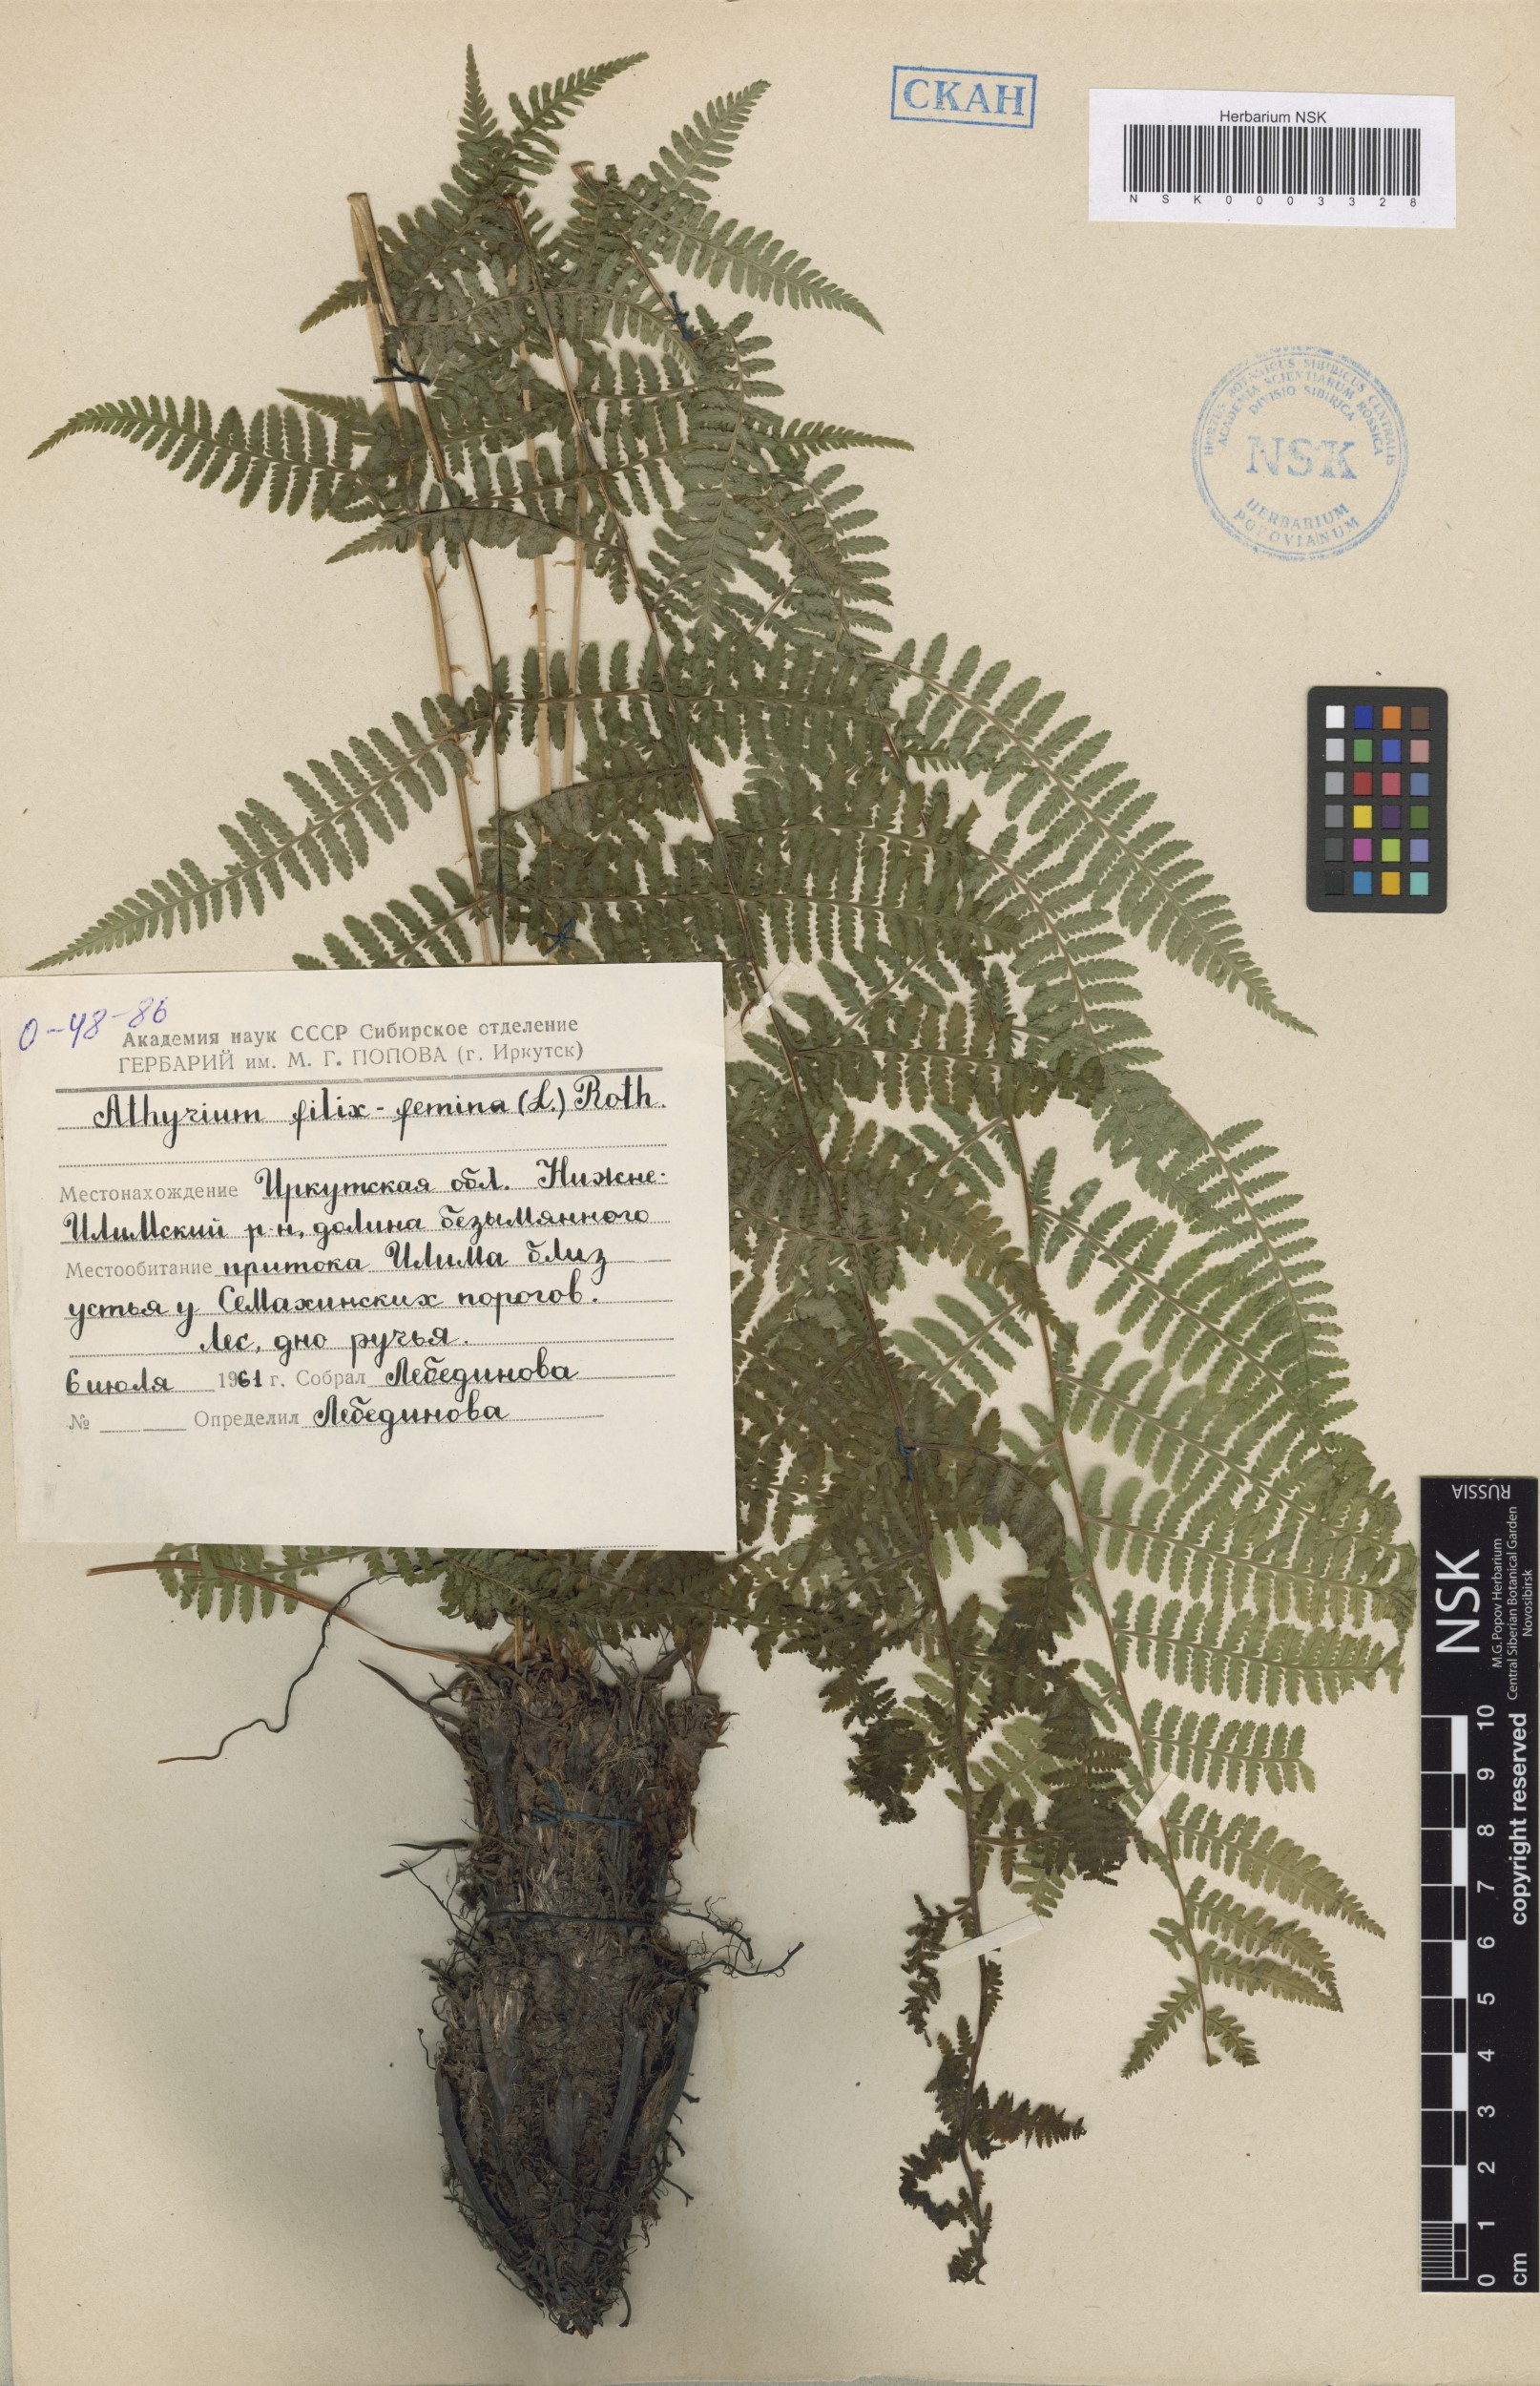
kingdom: Plantae
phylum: Tracheophyta
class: Polypodiopsida
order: Polypodiales
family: Athyriaceae
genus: Athyrium
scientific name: Athyrium filix-femina
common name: Lady fern
